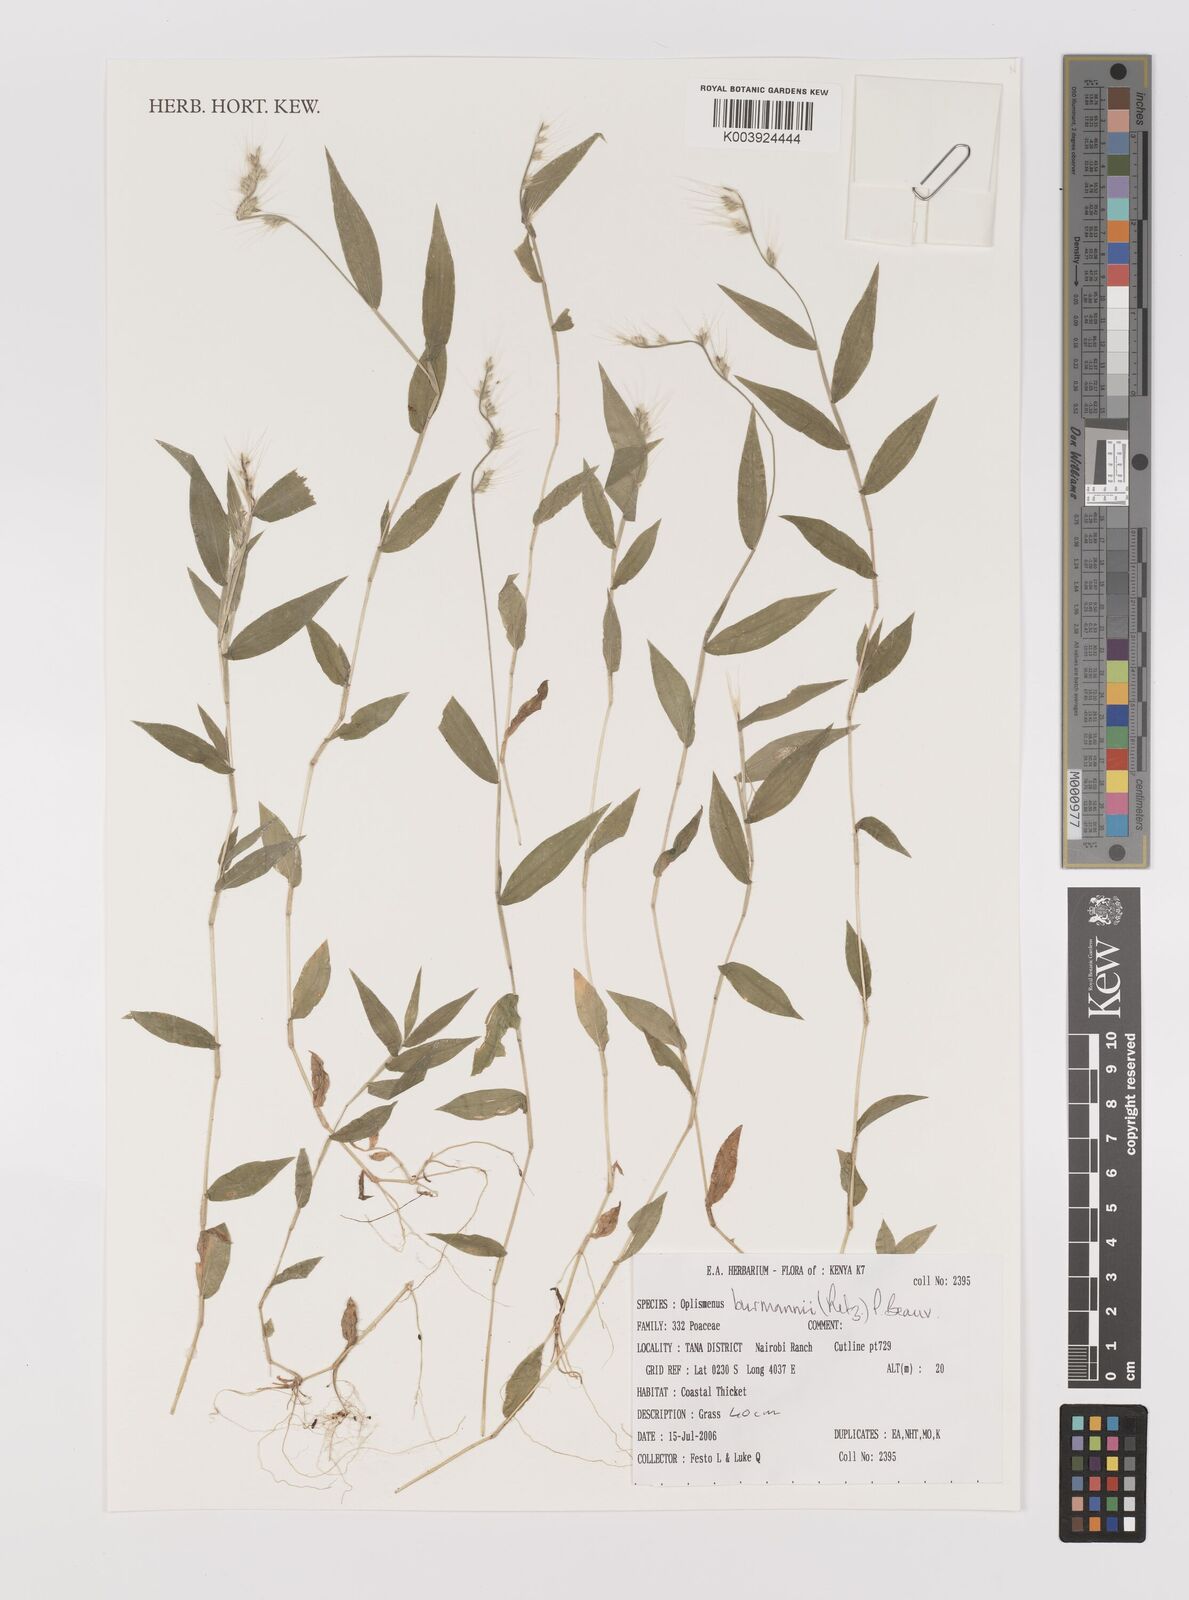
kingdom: Plantae
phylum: Tracheophyta
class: Liliopsida
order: Poales
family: Poaceae
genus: Oplismenus
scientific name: Oplismenus burmanni
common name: Burmann's basketgrass
